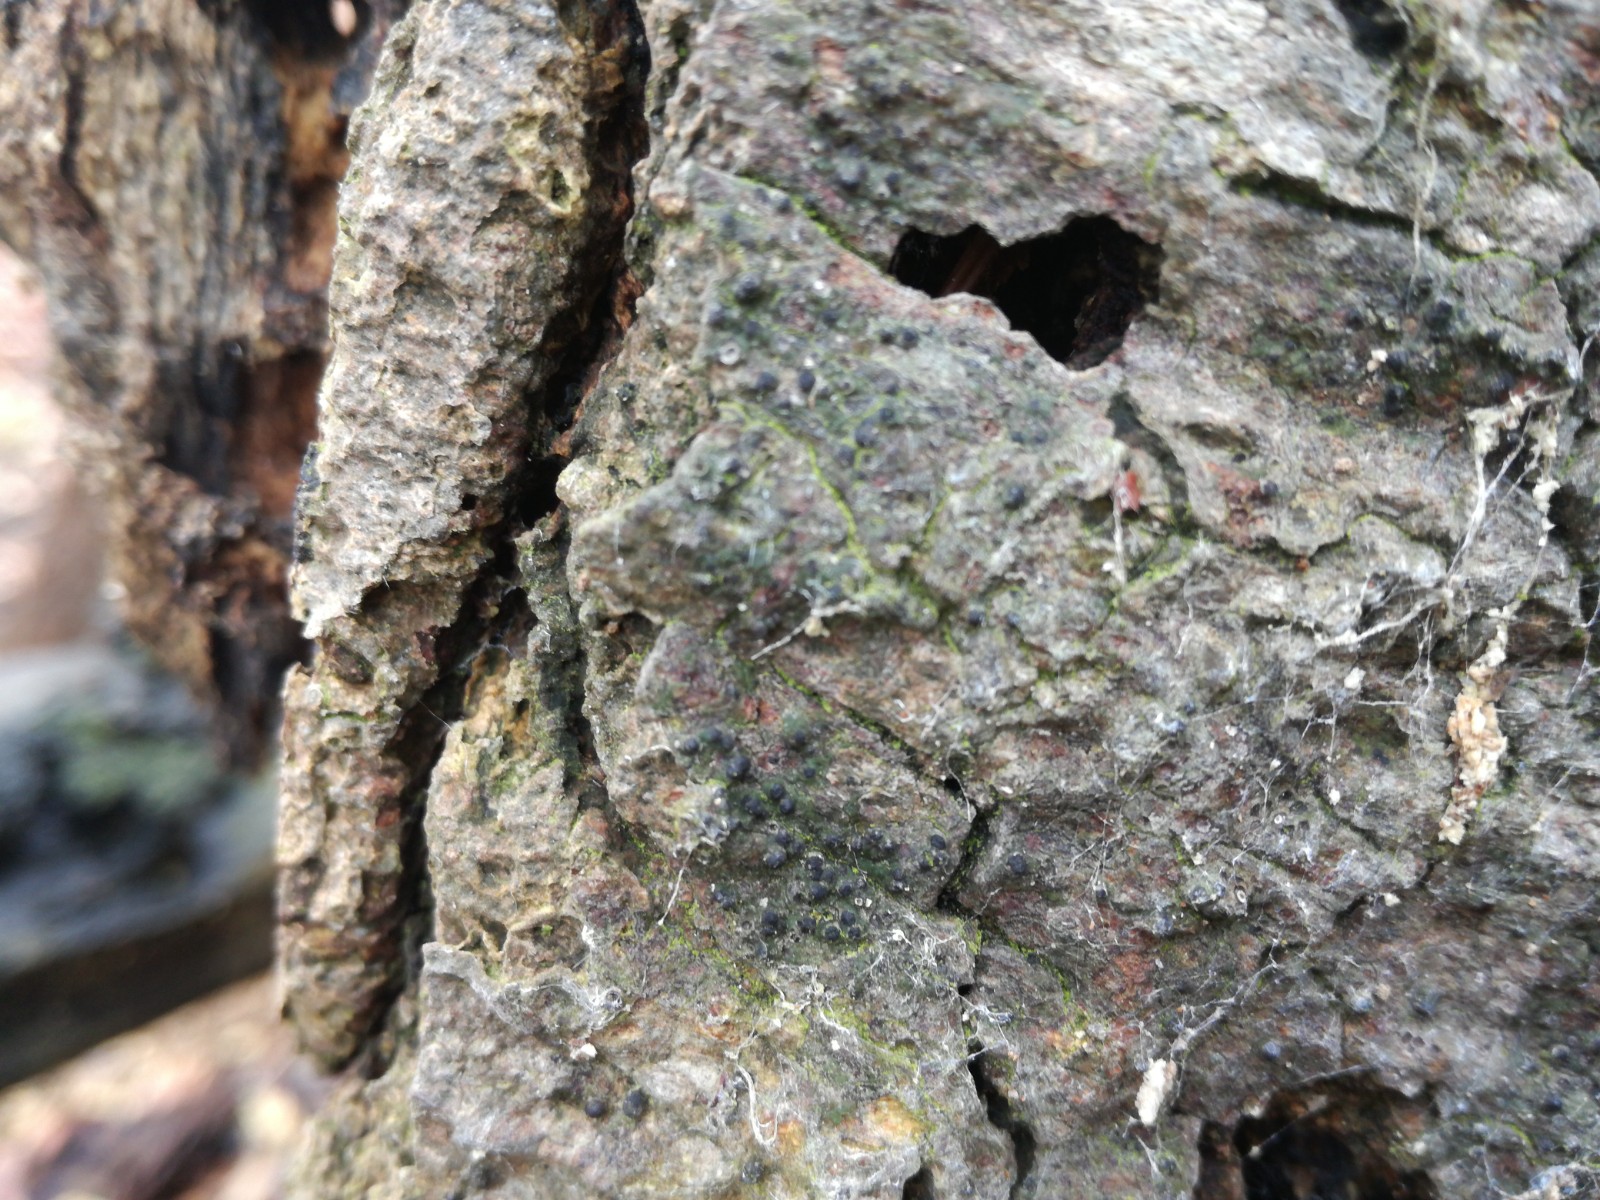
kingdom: Fungi
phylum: Ascomycota
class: Eurotiomycetes
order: Pyrenulales
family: Pyrenulaceae
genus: Pyrenula
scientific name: Pyrenula nitida
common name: glinsende kernelav
